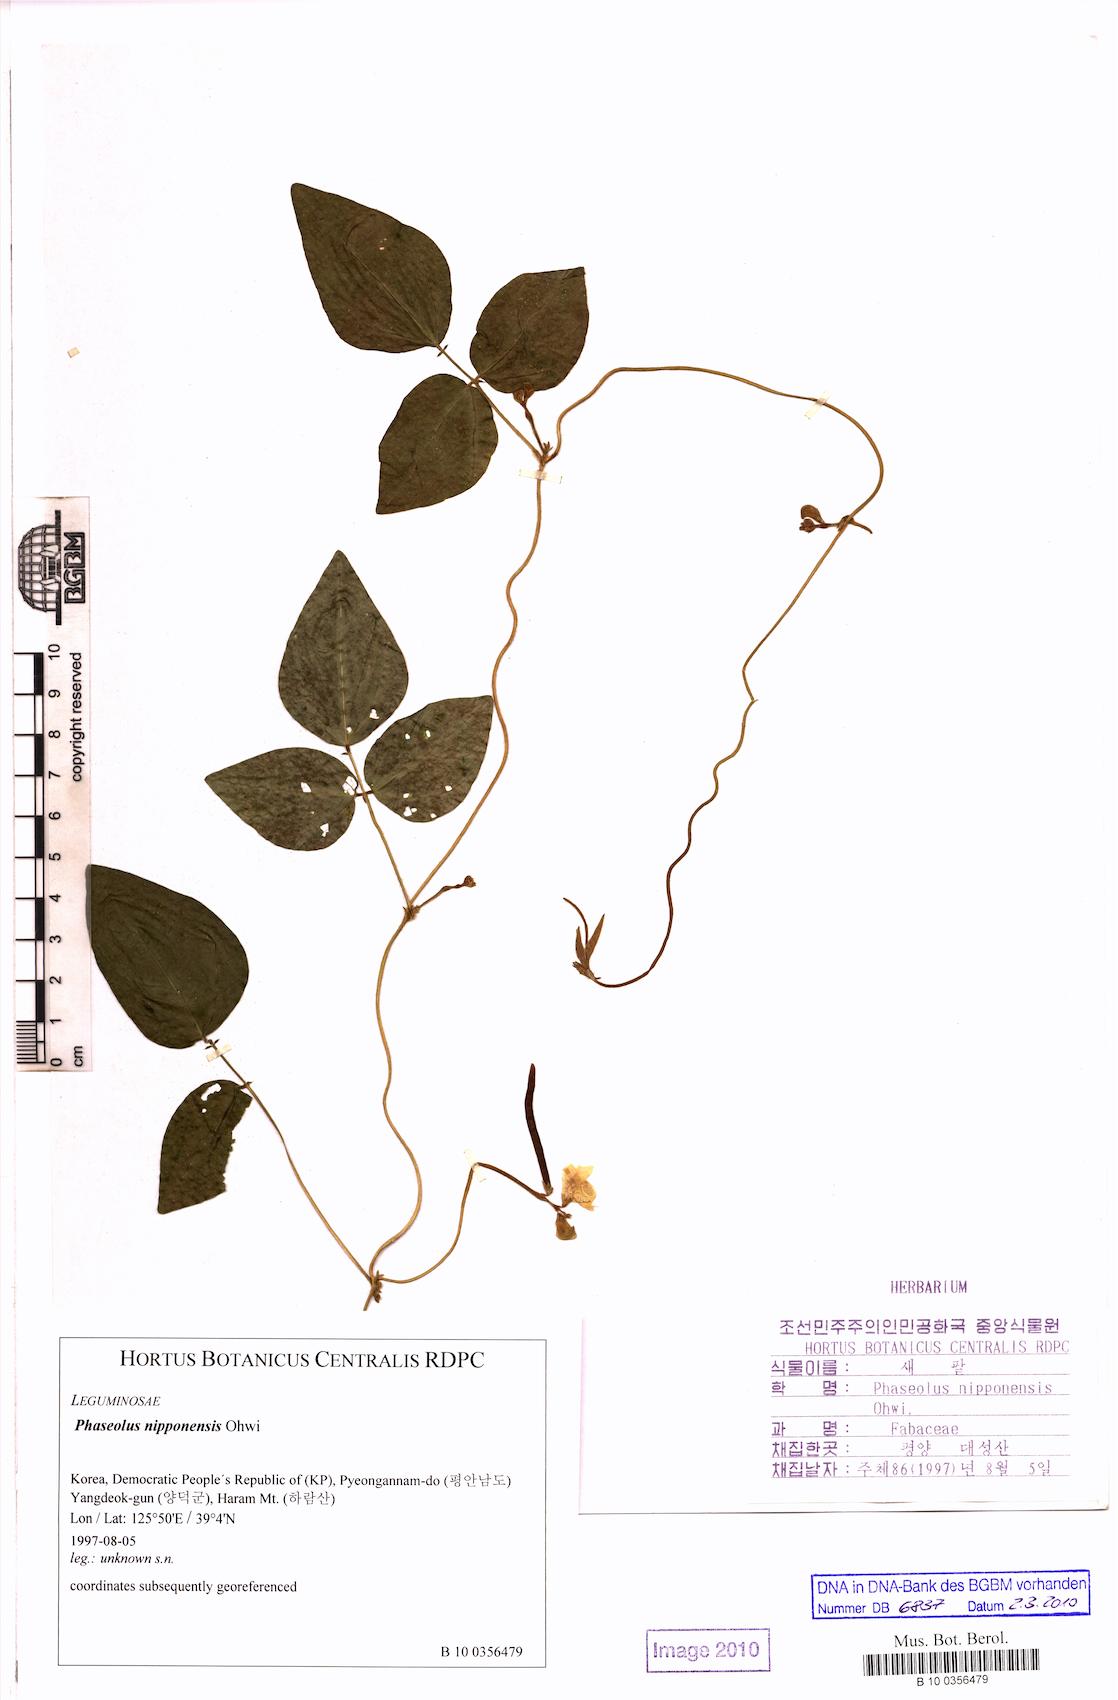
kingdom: Plantae
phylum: Tracheophyta
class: Magnoliopsida
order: Fabales
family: Fabaceae
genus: Vigna
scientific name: Vigna angularis
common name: Adzuki bean
